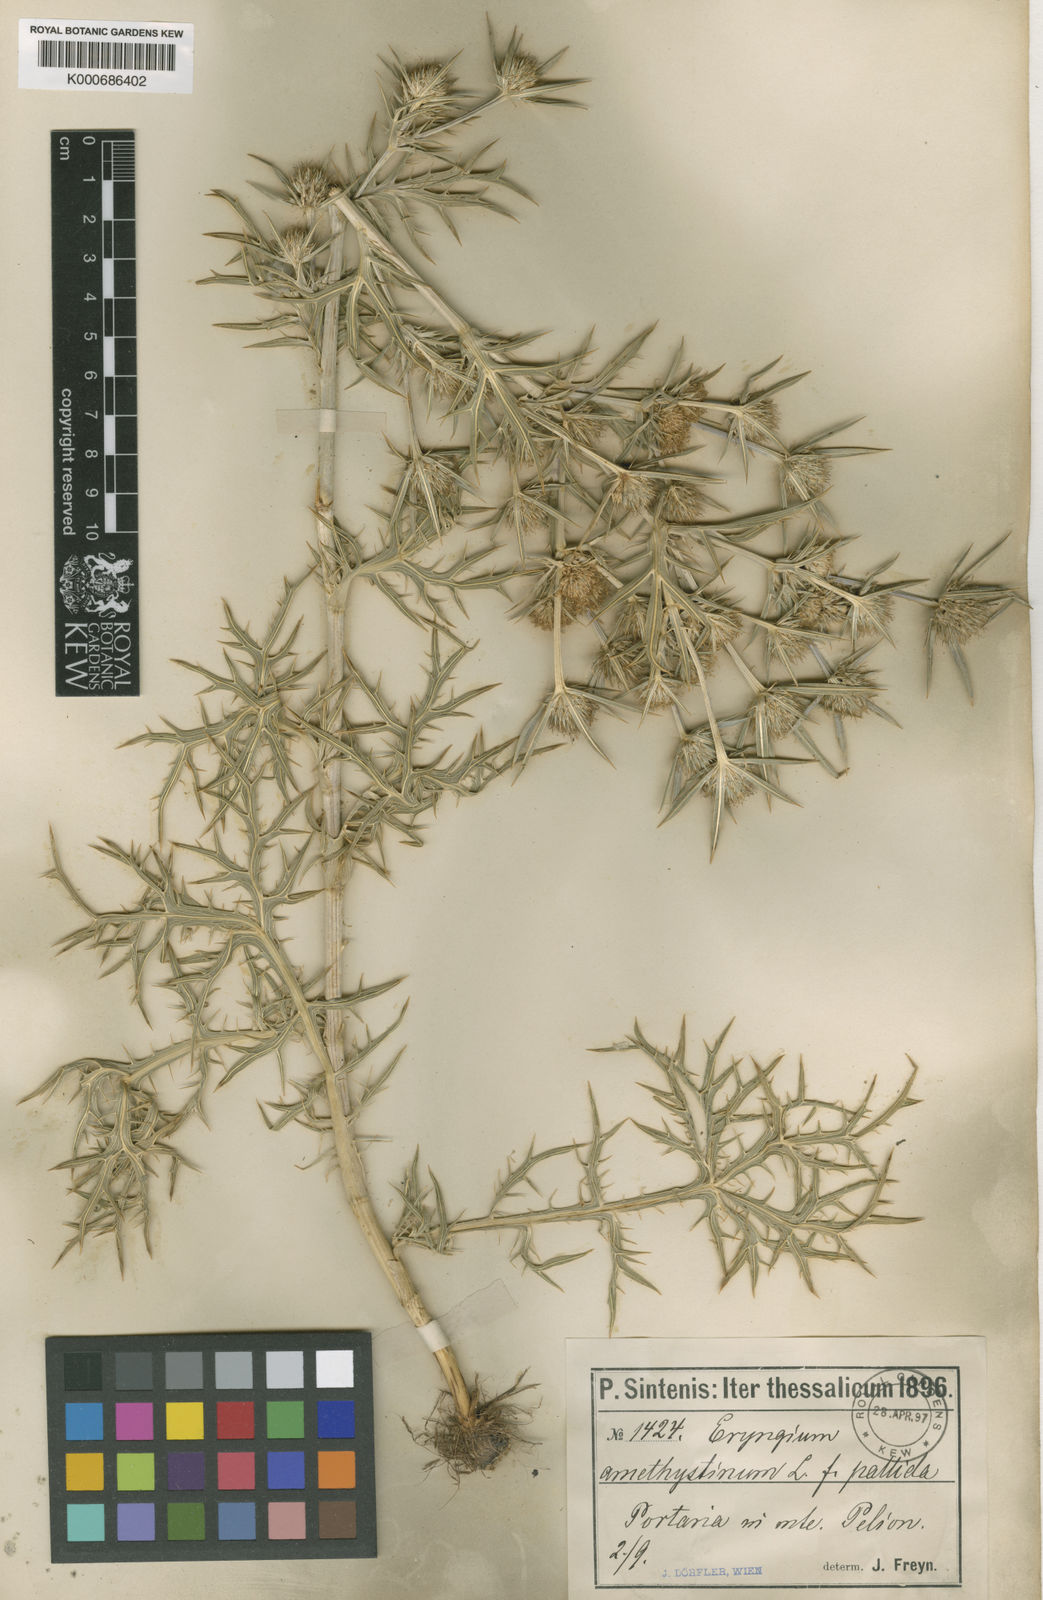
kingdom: Plantae
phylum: Tracheophyta
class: Magnoliopsida
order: Apiales
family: Apiaceae
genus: Eryngium
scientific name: Eryngium amethystinum
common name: Amethyst eryngo
